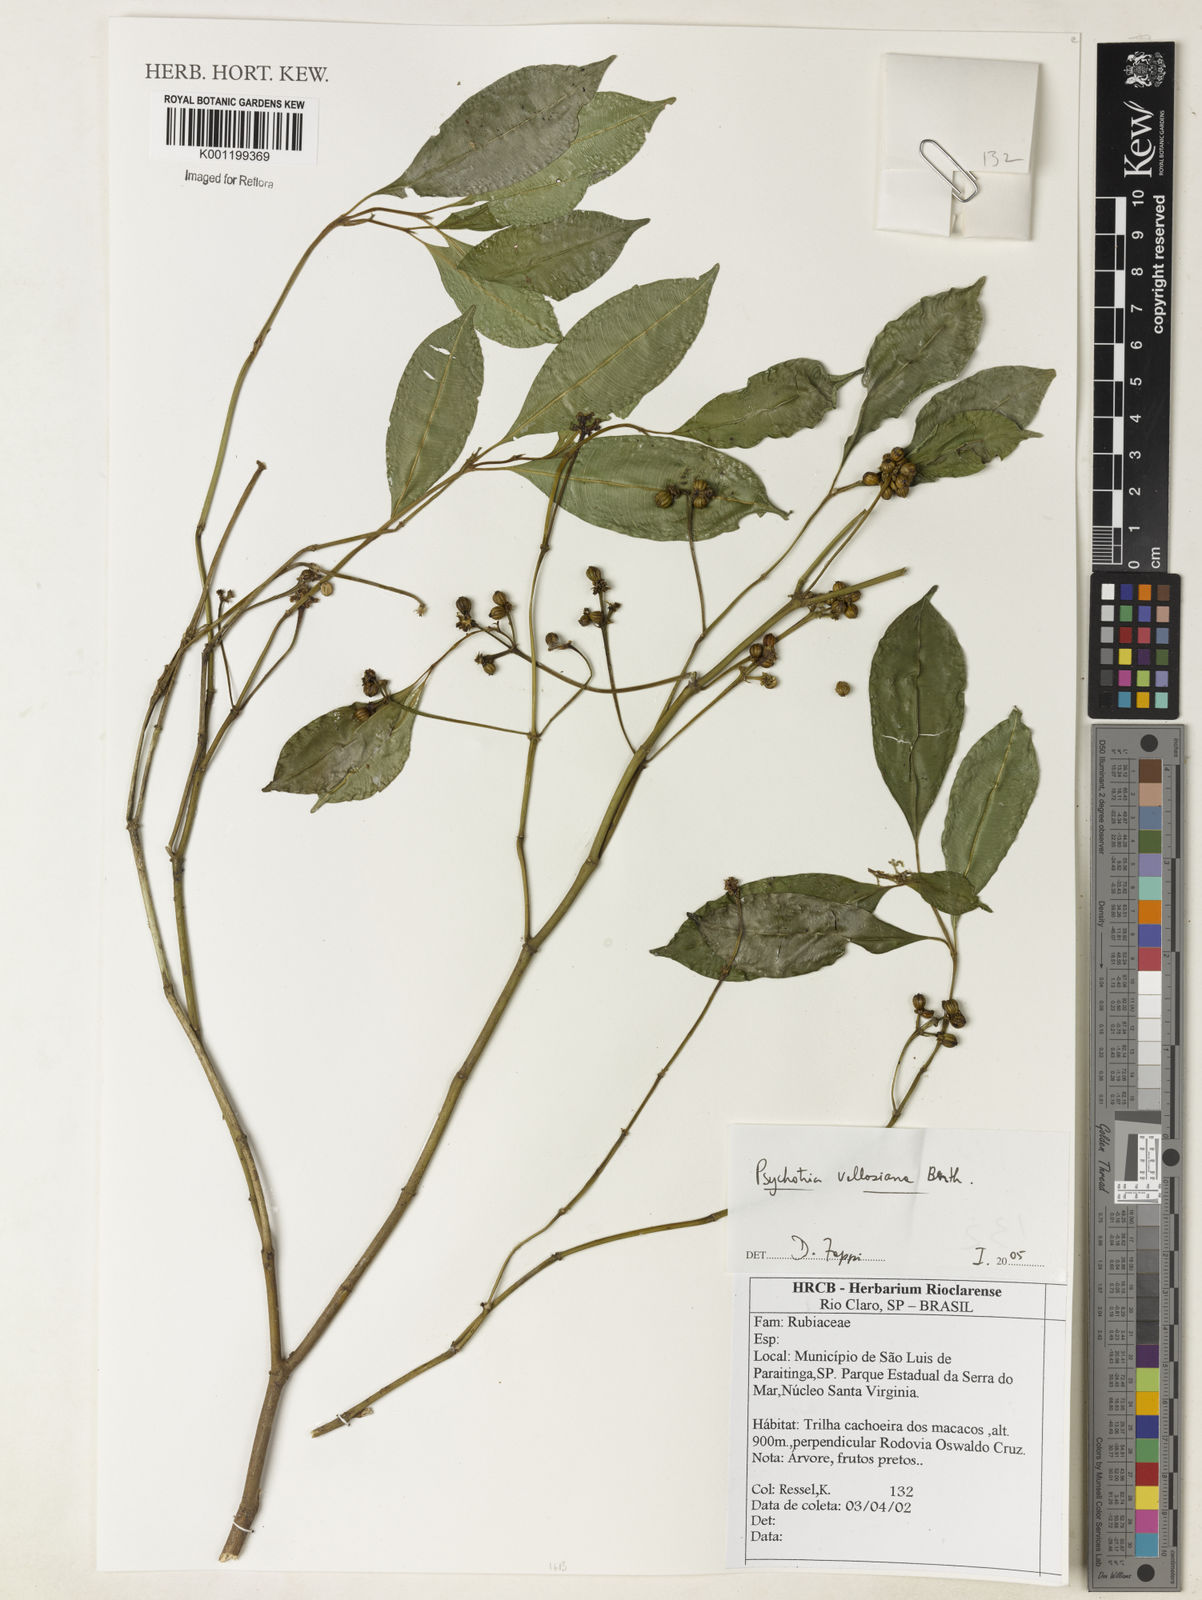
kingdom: Plantae
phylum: Tracheophyta
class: Magnoliopsida
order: Gentianales
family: Rubiaceae
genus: Palicourea
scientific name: Palicourea sessilis
